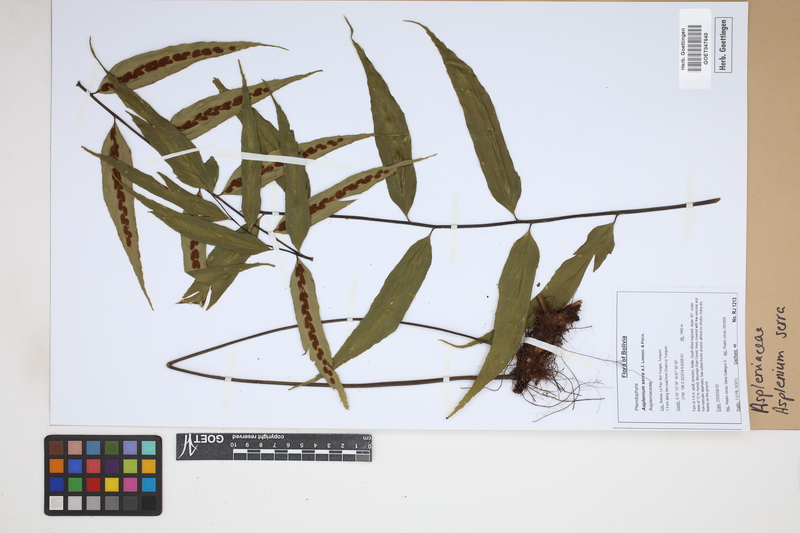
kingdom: Plantae
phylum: Tracheophyta
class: Polypodiopsida
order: Polypodiales
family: Aspleniaceae
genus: Asplenium
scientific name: Asplenium serra
